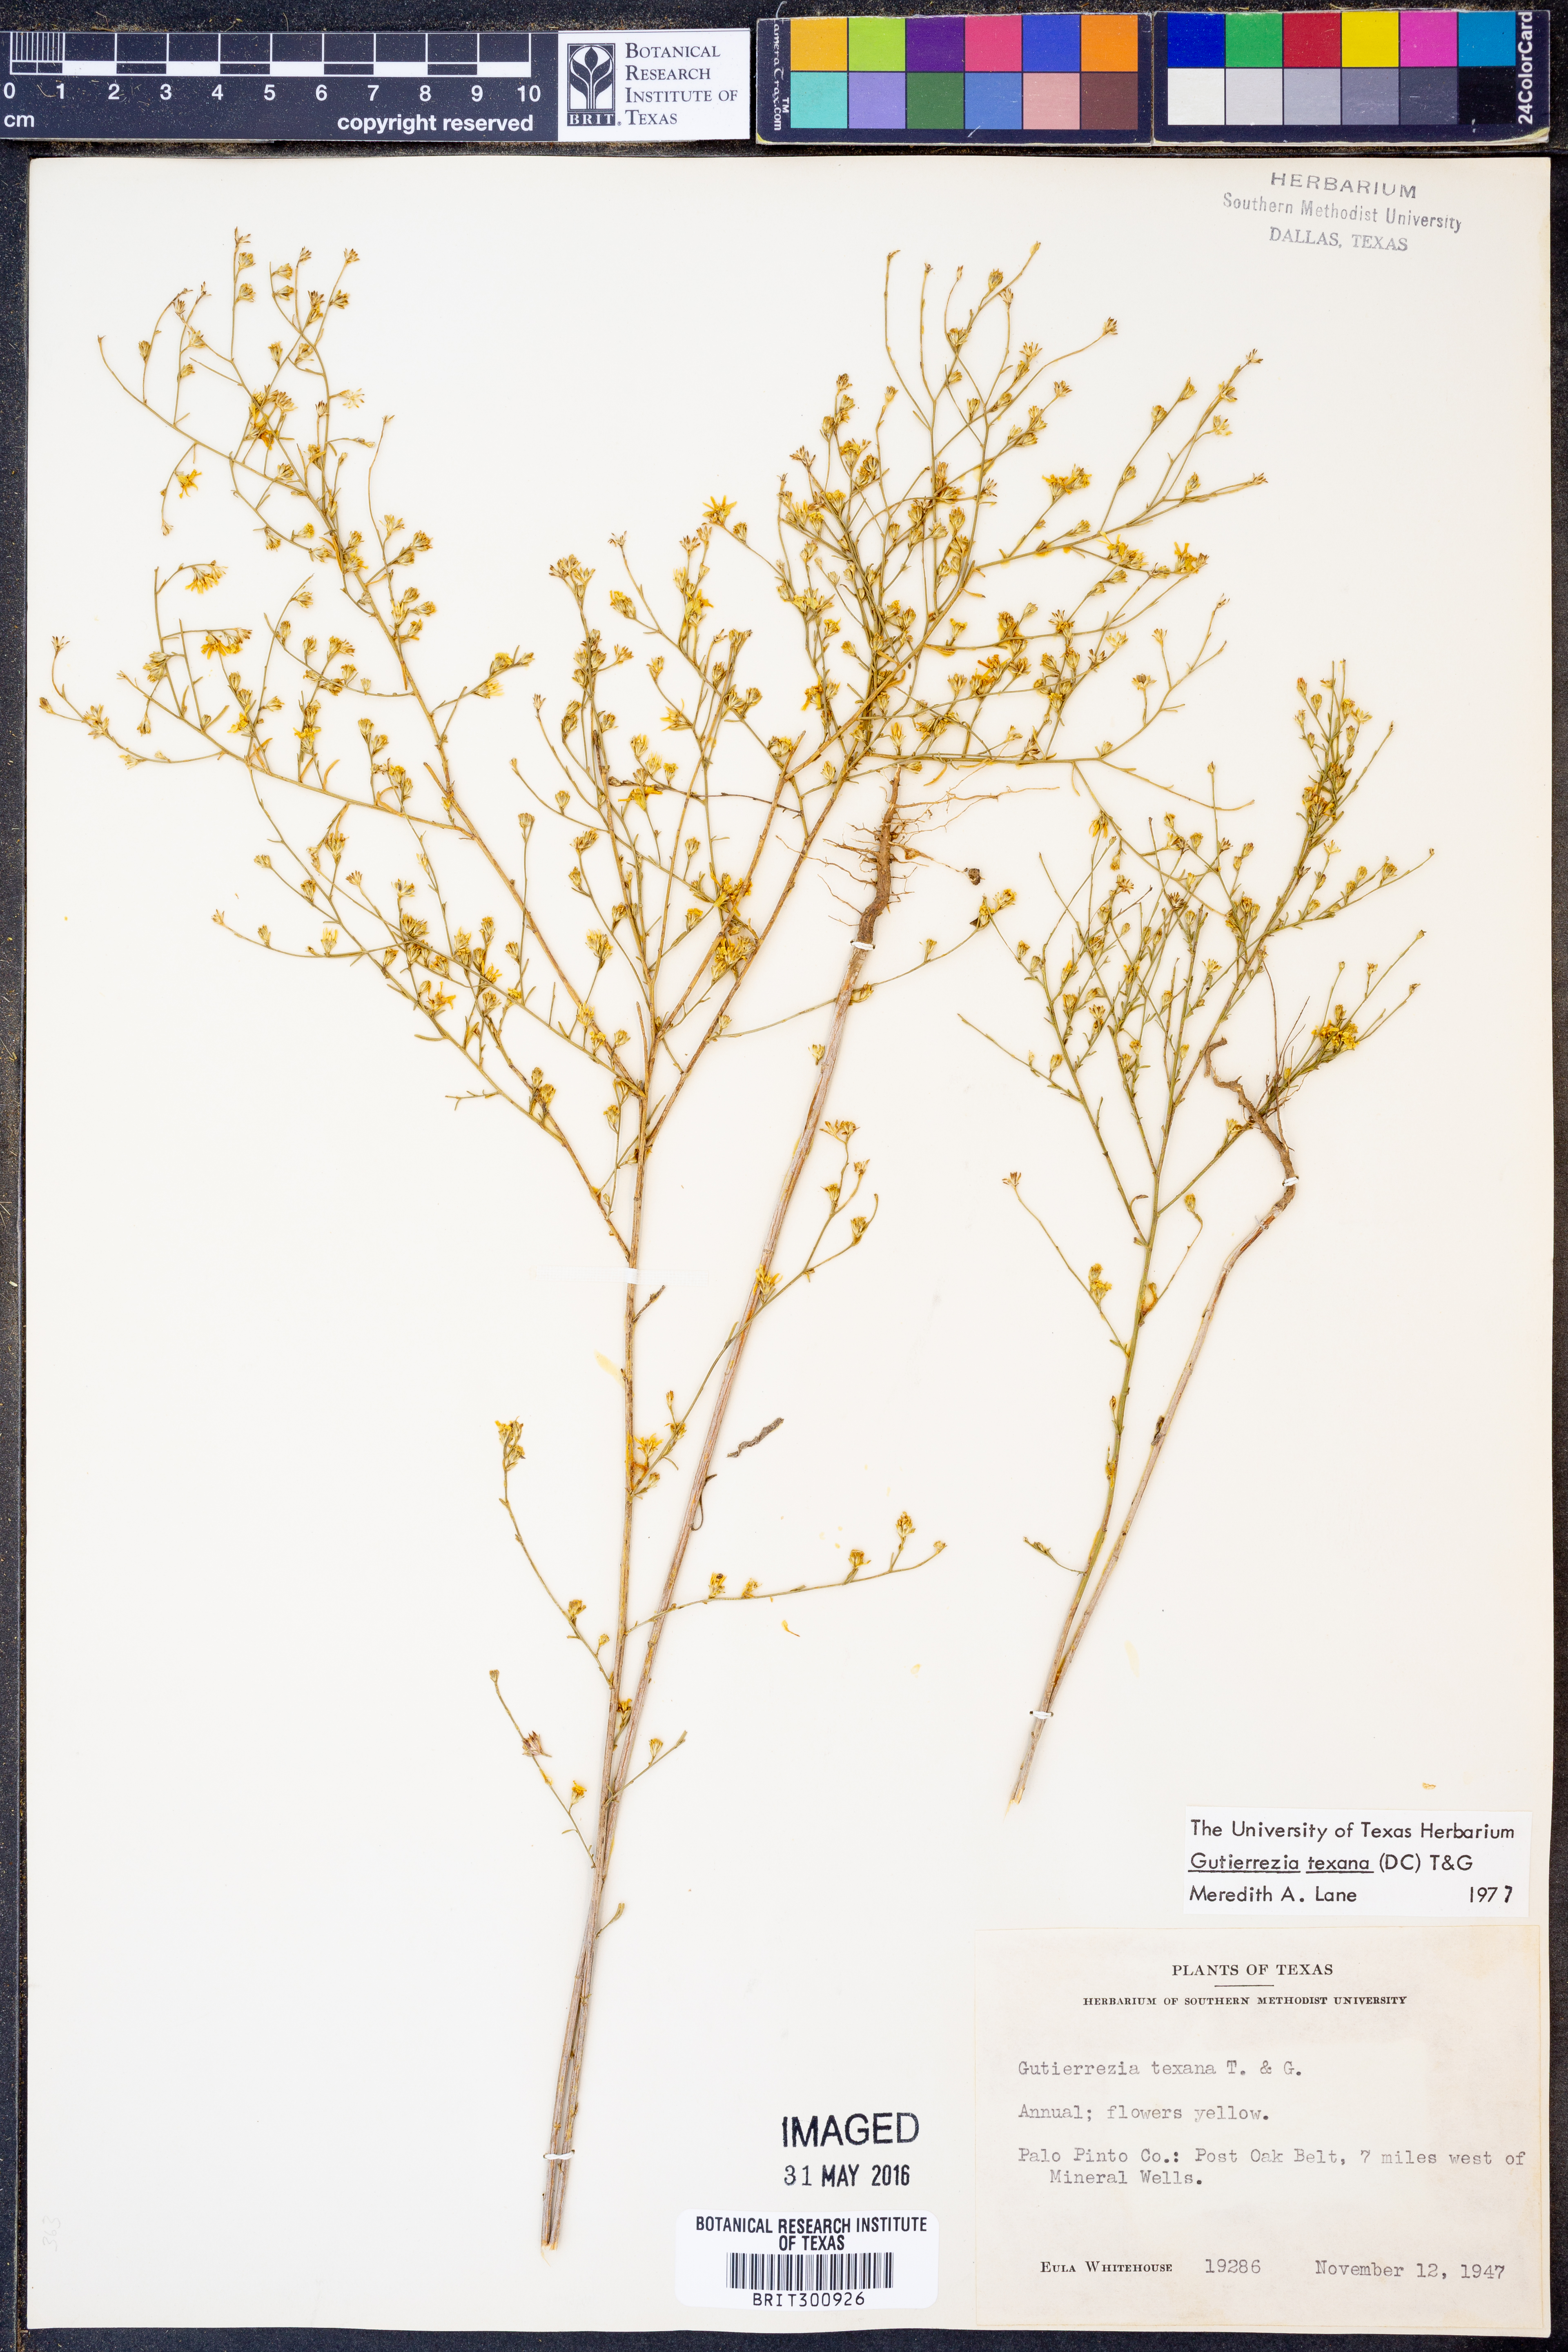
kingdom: Plantae
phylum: Tracheophyta
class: Magnoliopsida
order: Asterales
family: Asteraceae
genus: Gutierrezia
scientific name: Gutierrezia texana
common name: Texas snakeweed
